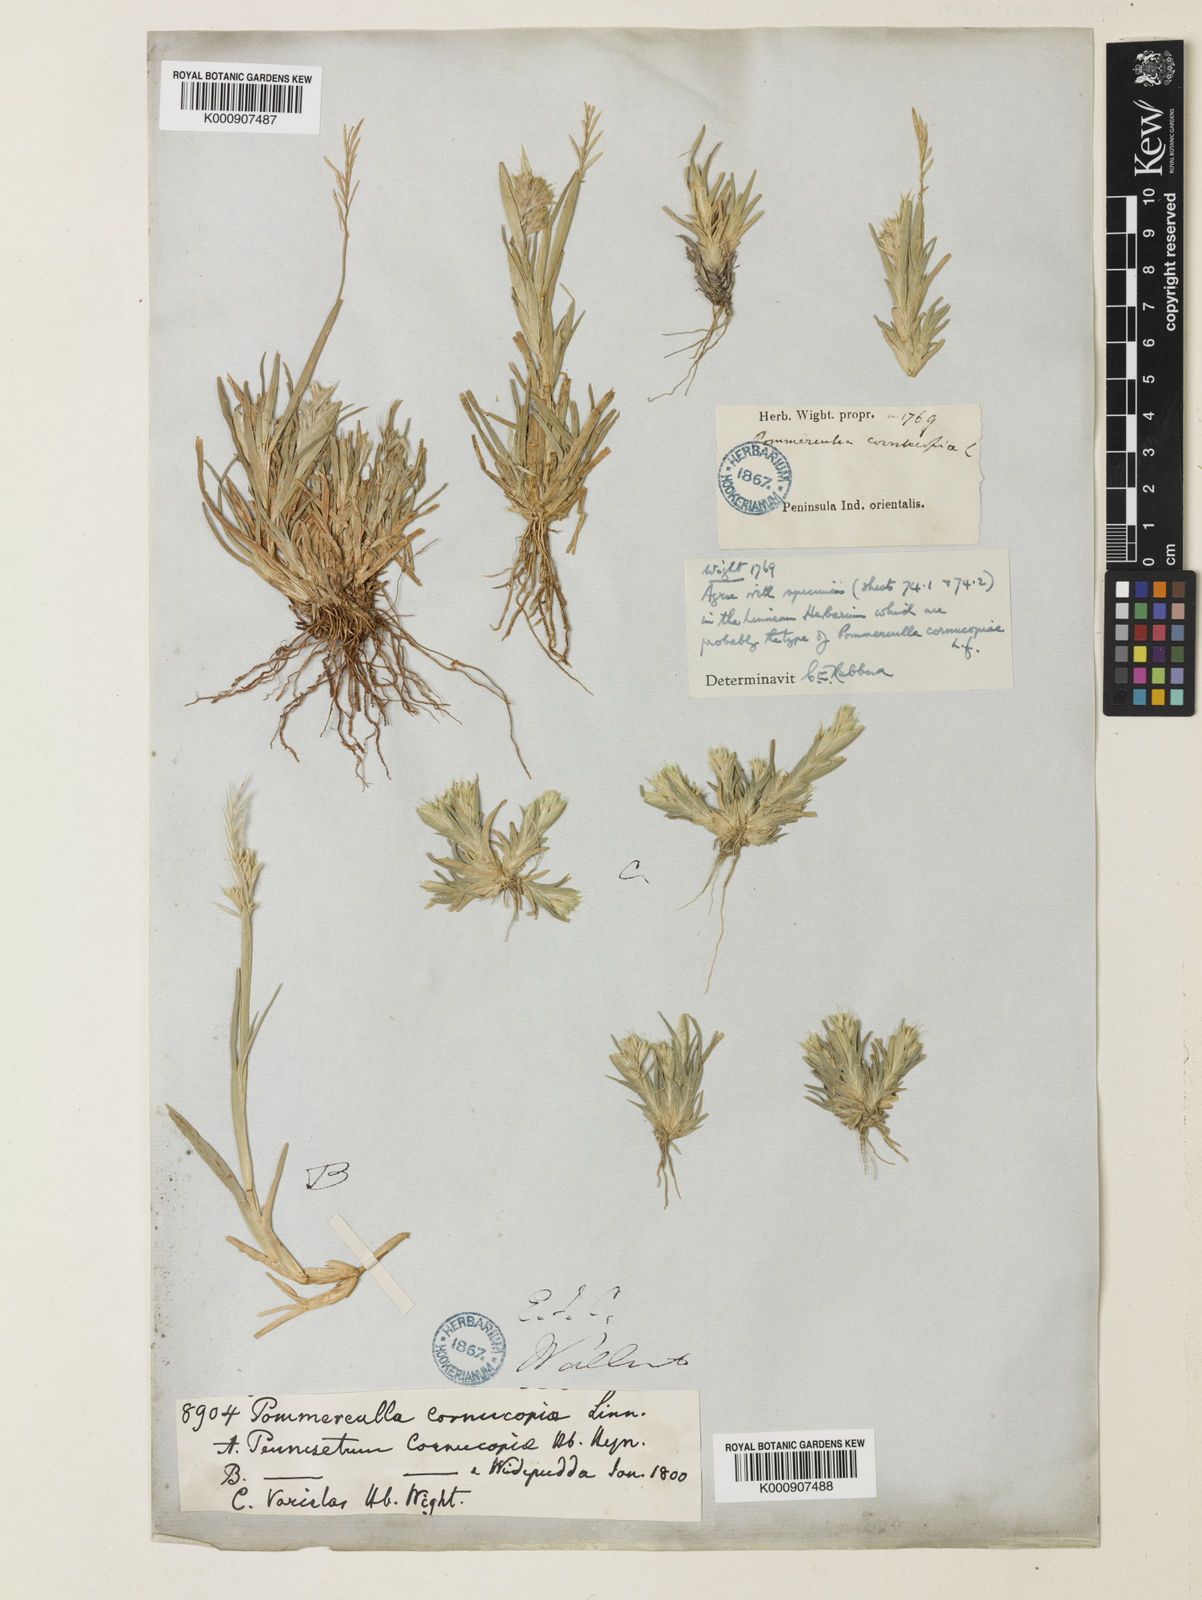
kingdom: Plantae
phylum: Tracheophyta
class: Liliopsida
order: Poales
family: Poaceae
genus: Pommereulla
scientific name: Pommereulla cornucopiae
